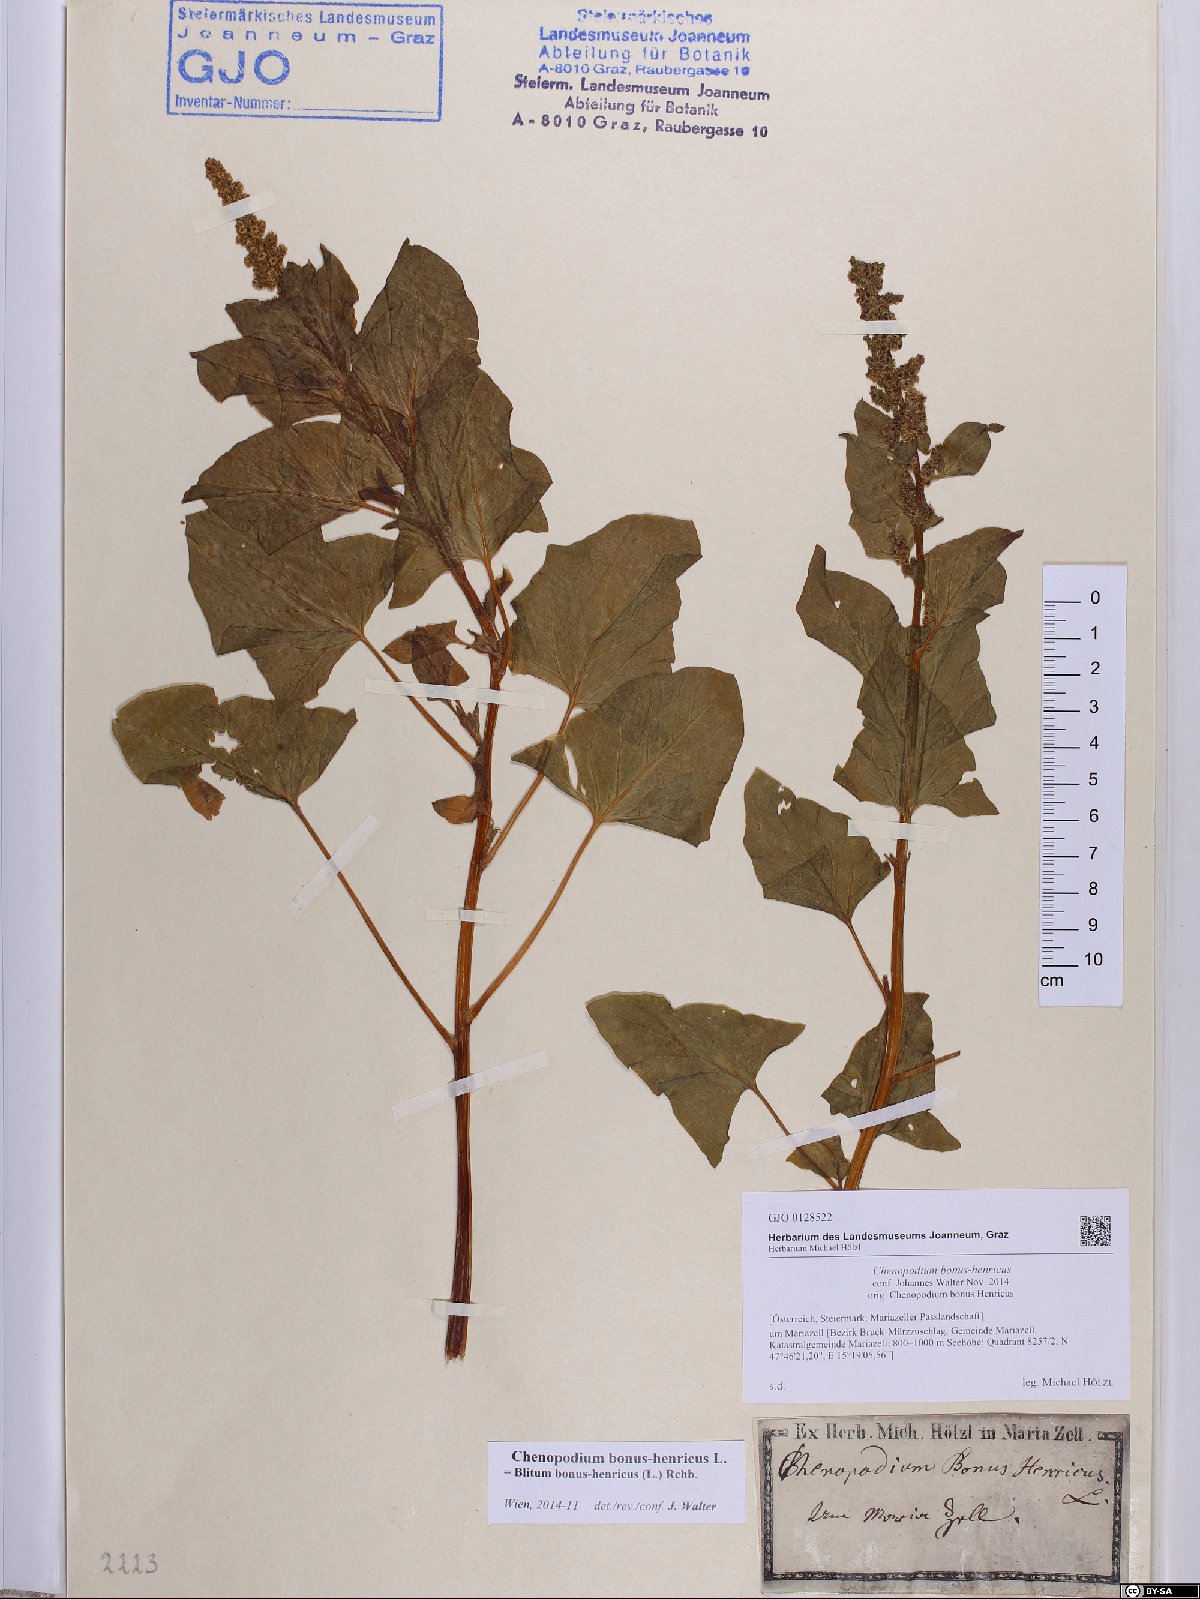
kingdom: Plantae
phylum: Tracheophyta
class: Magnoliopsida
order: Caryophyllales
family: Amaranthaceae
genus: Blitum
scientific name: Blitum bonus-henricus
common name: Good king henry
